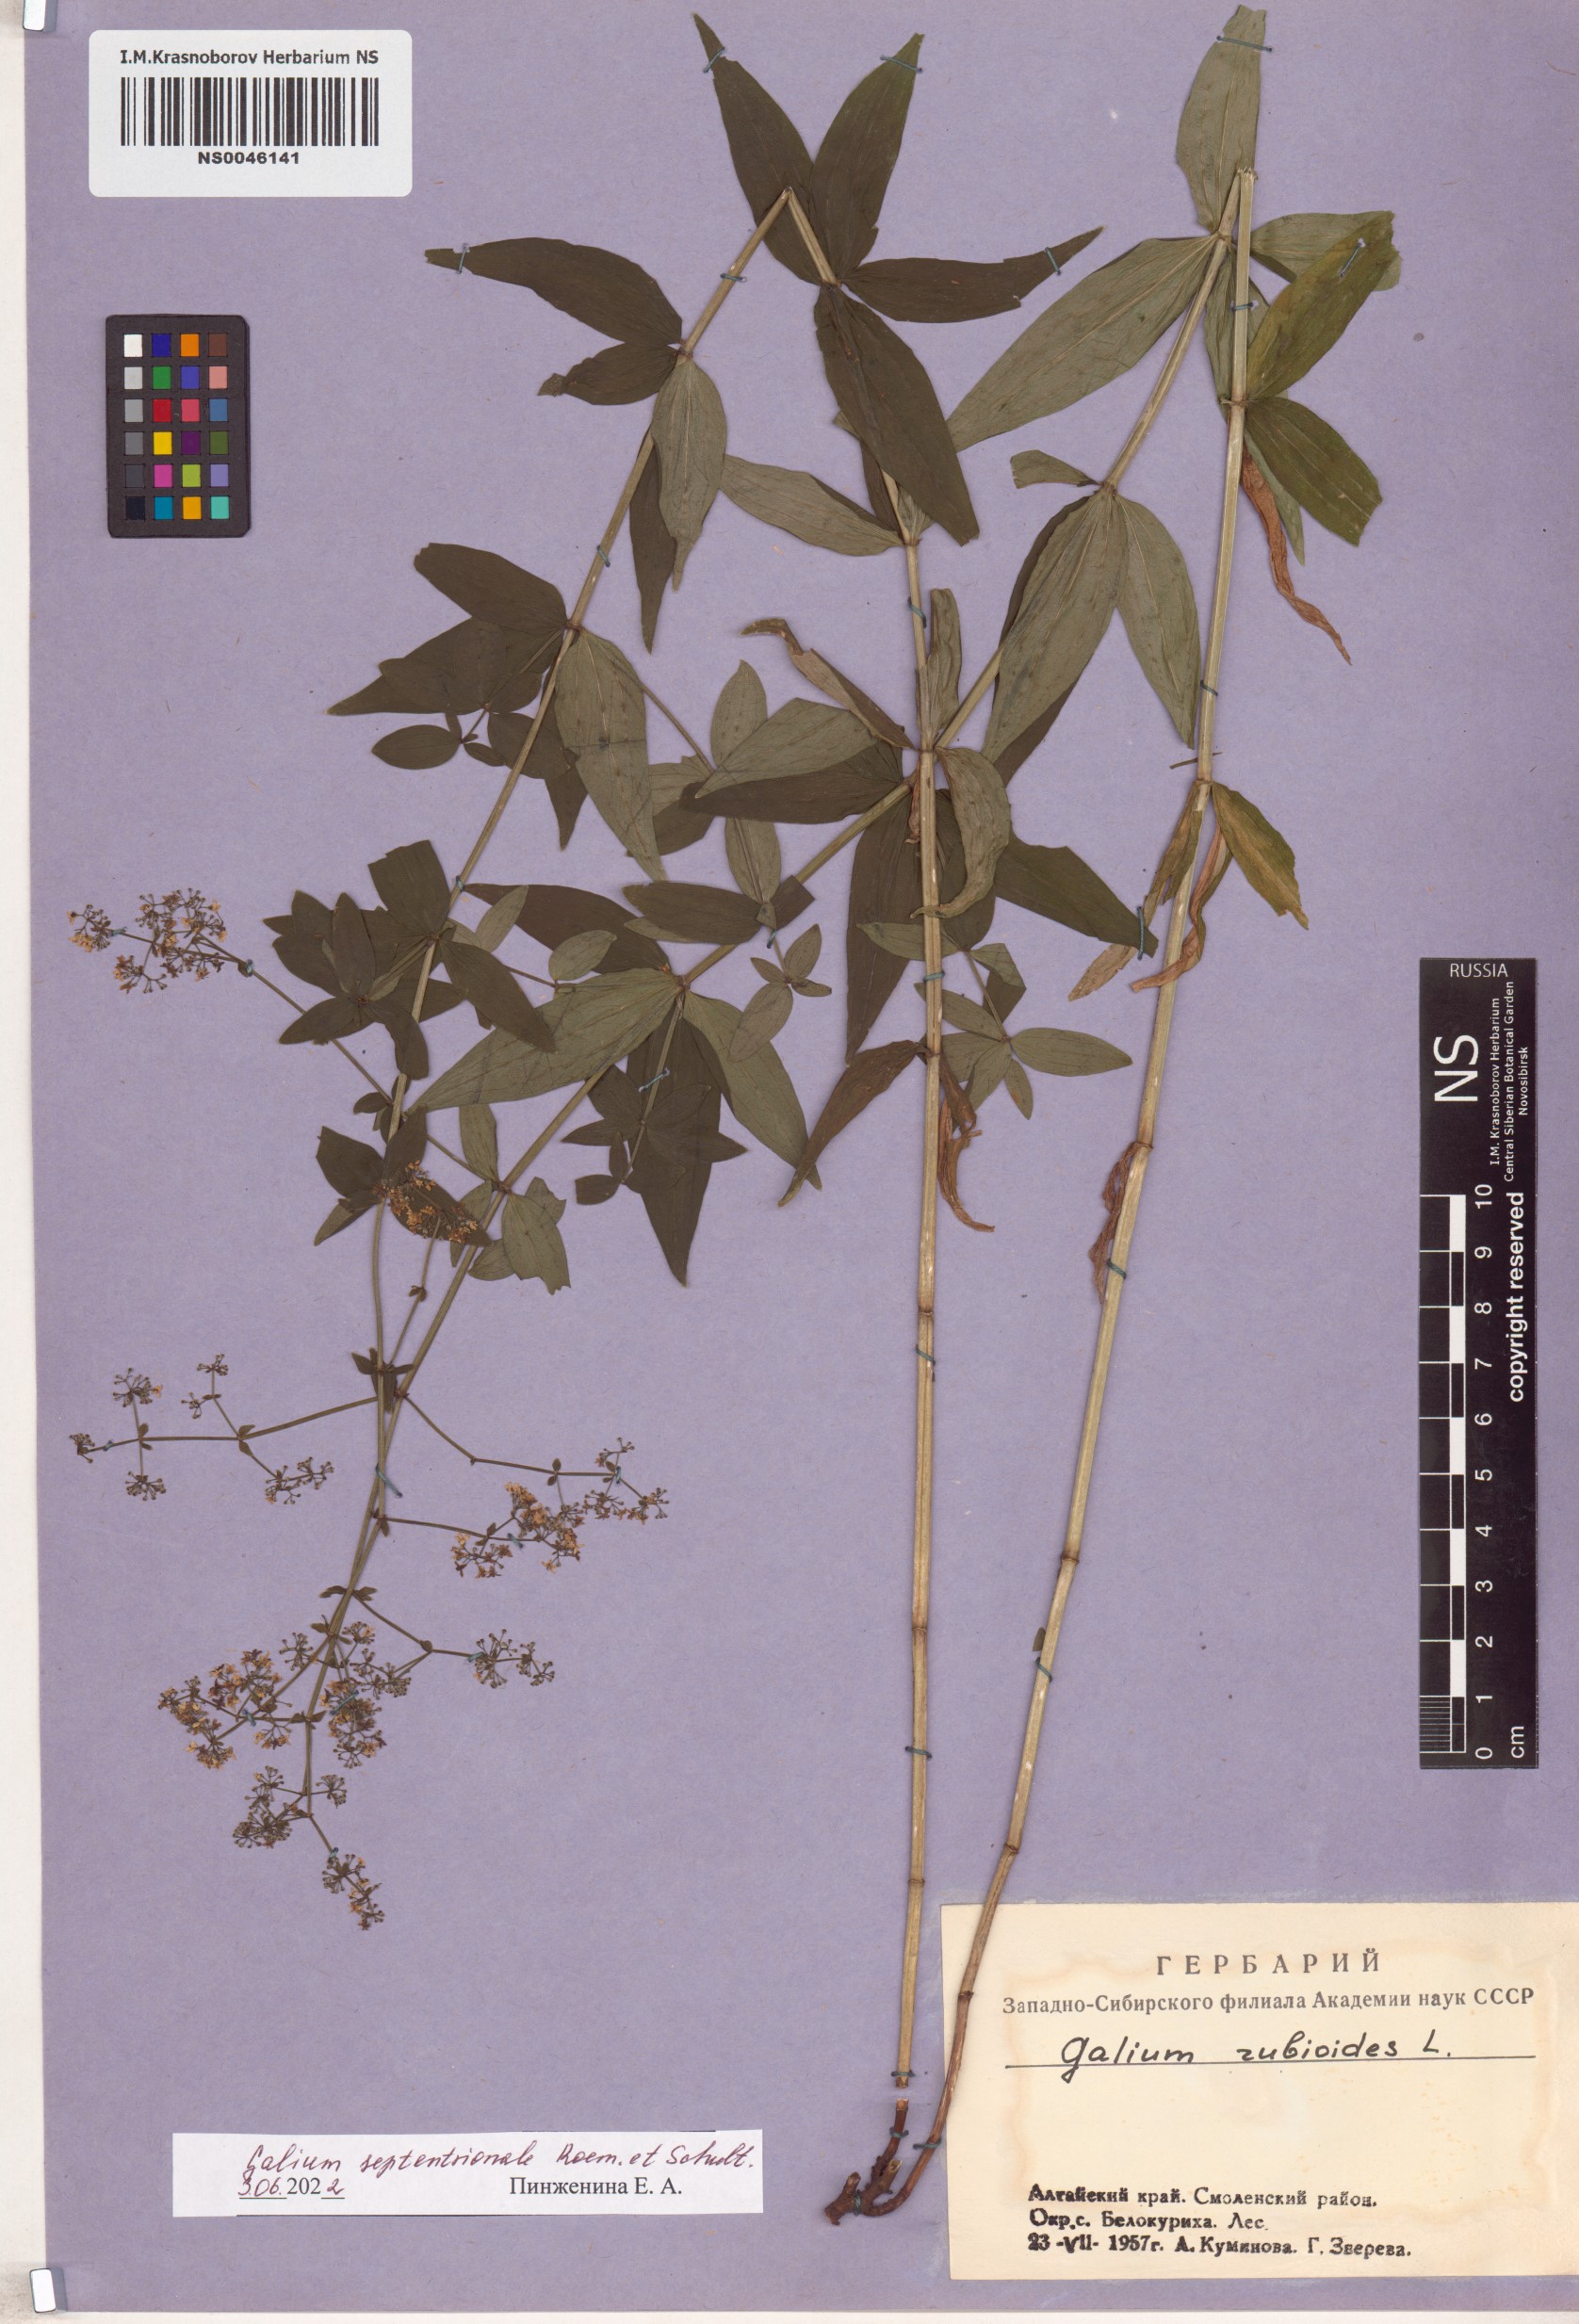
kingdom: Plantae
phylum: Tracheophyta
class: Magnoliopsida
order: Gentianales
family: Rubiaceae
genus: Galium
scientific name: Galium boreale
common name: Northern bedstraw
